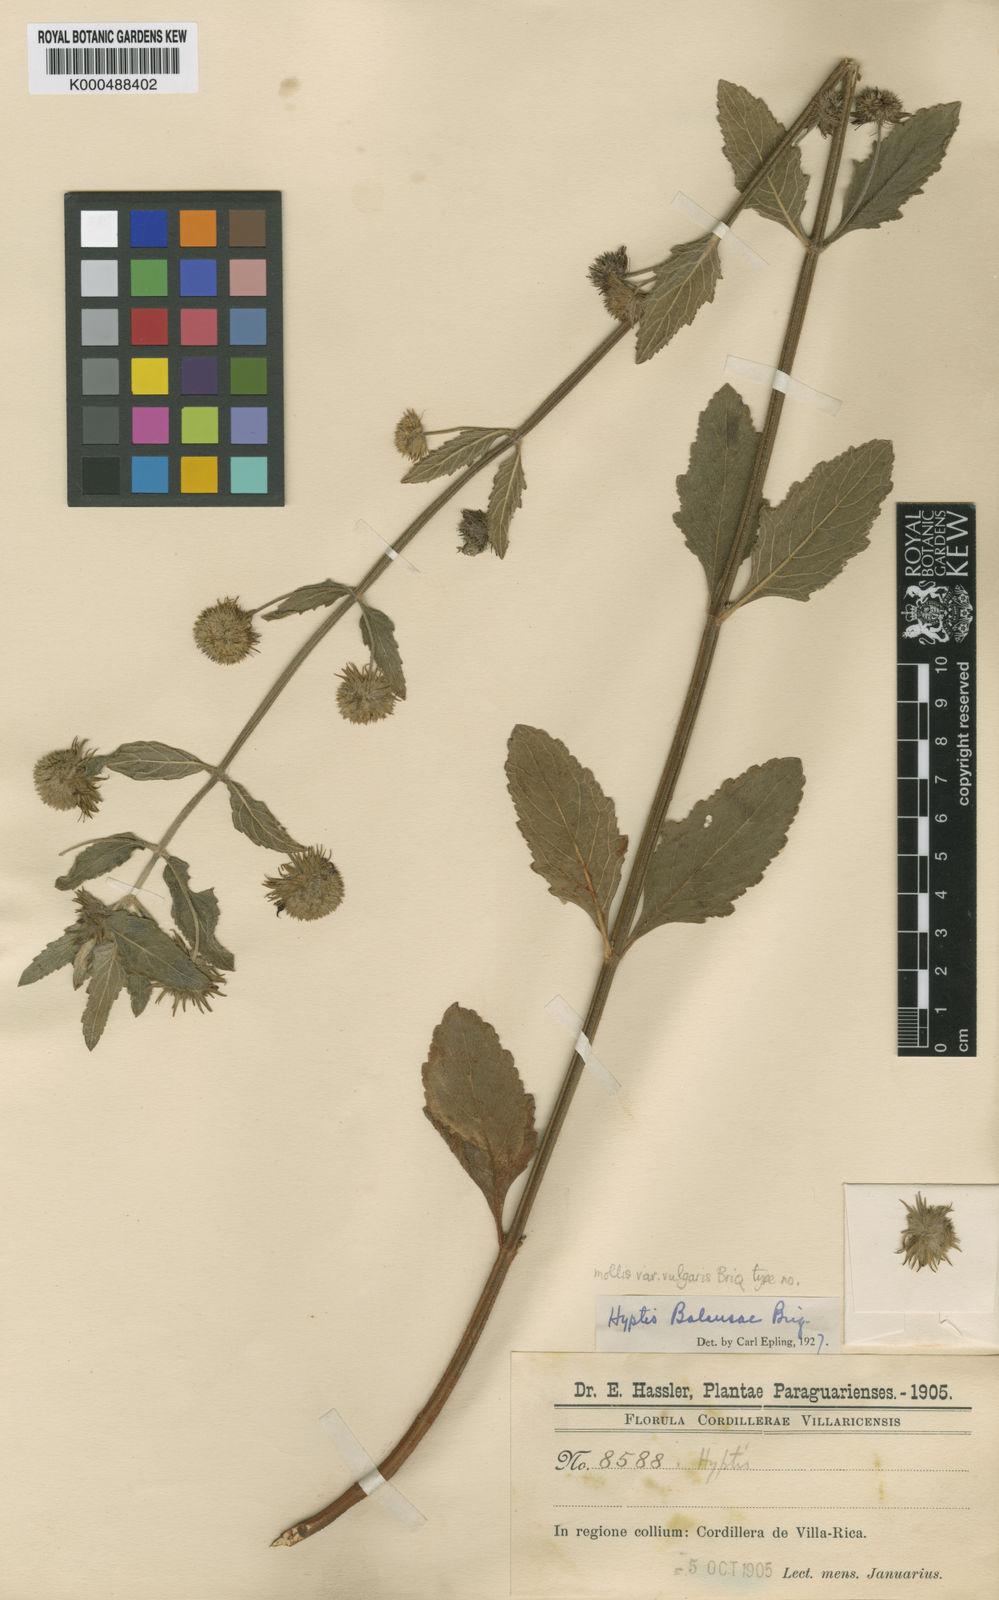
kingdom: Plantae
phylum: Tracheophyta
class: Magnoliopsida
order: Lamiales
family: Lamiaceae
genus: Hyptis
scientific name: Hyptis balansae
